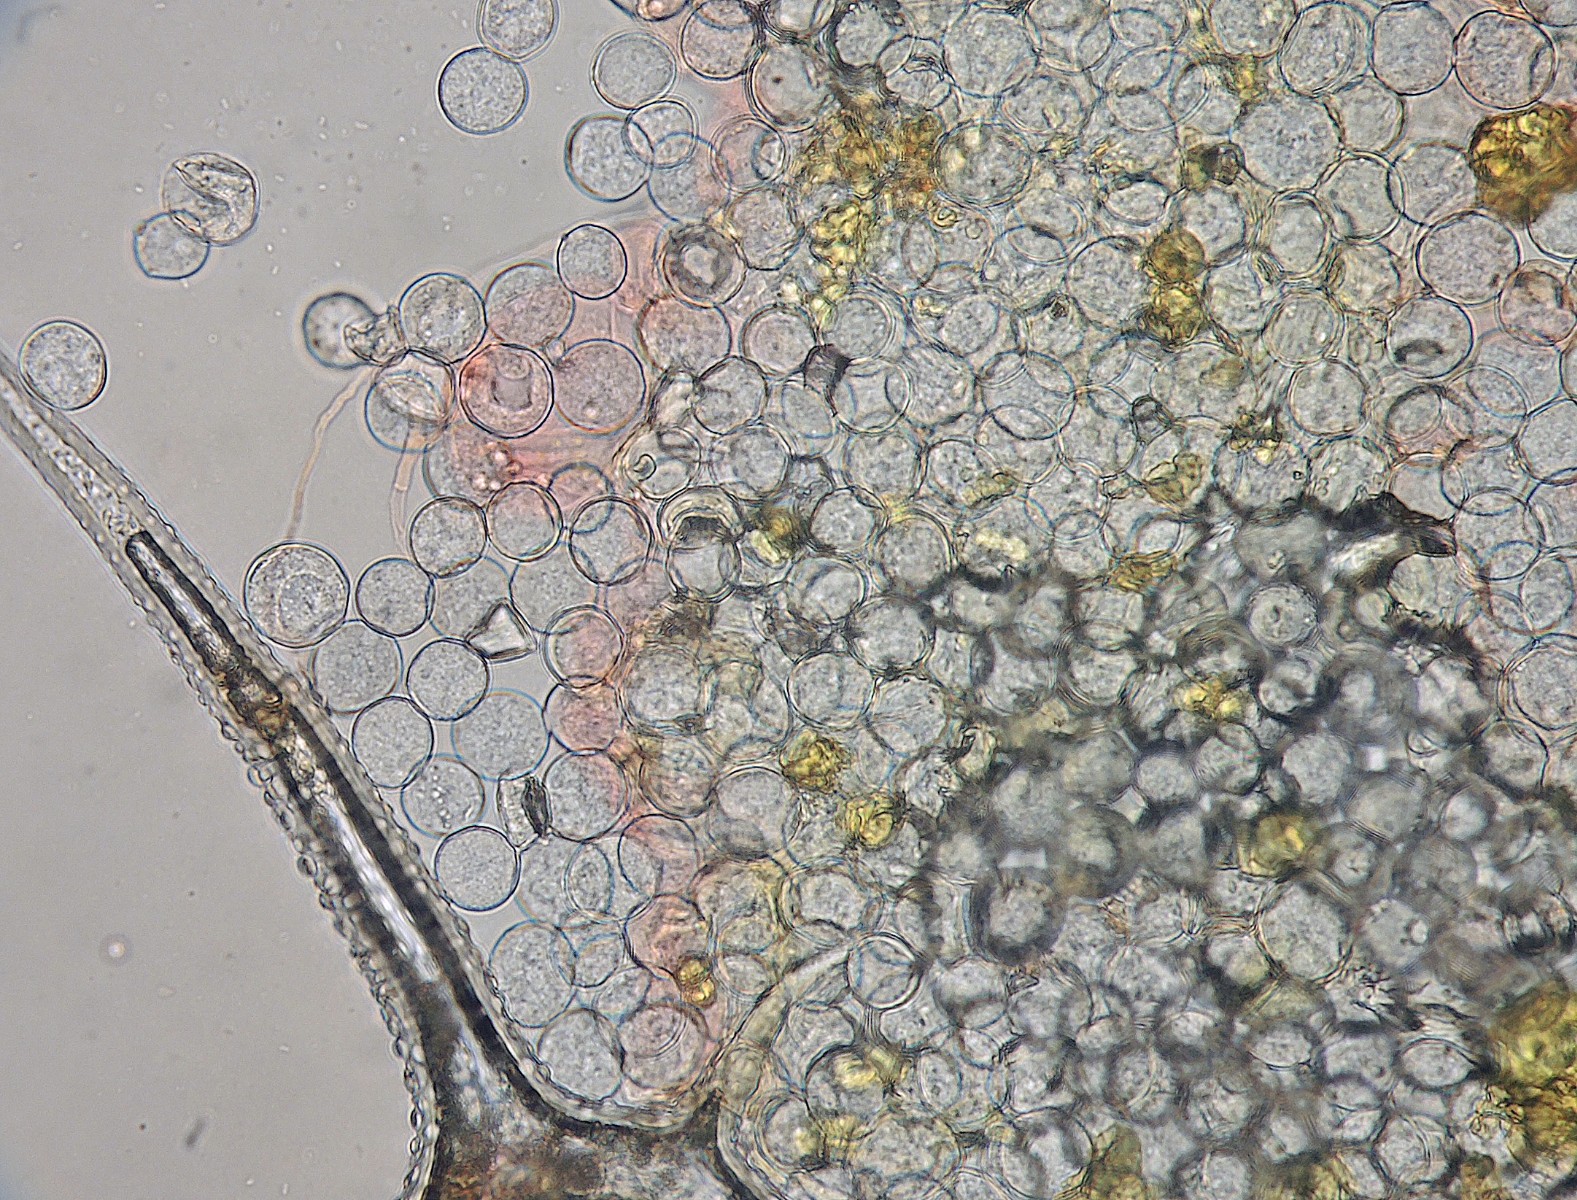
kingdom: Chromista
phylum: Oomycota
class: Peronosporea
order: Albuginales
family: Albuginaceae
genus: Albugo
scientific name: Albugo candida
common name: Crucifer white blister
